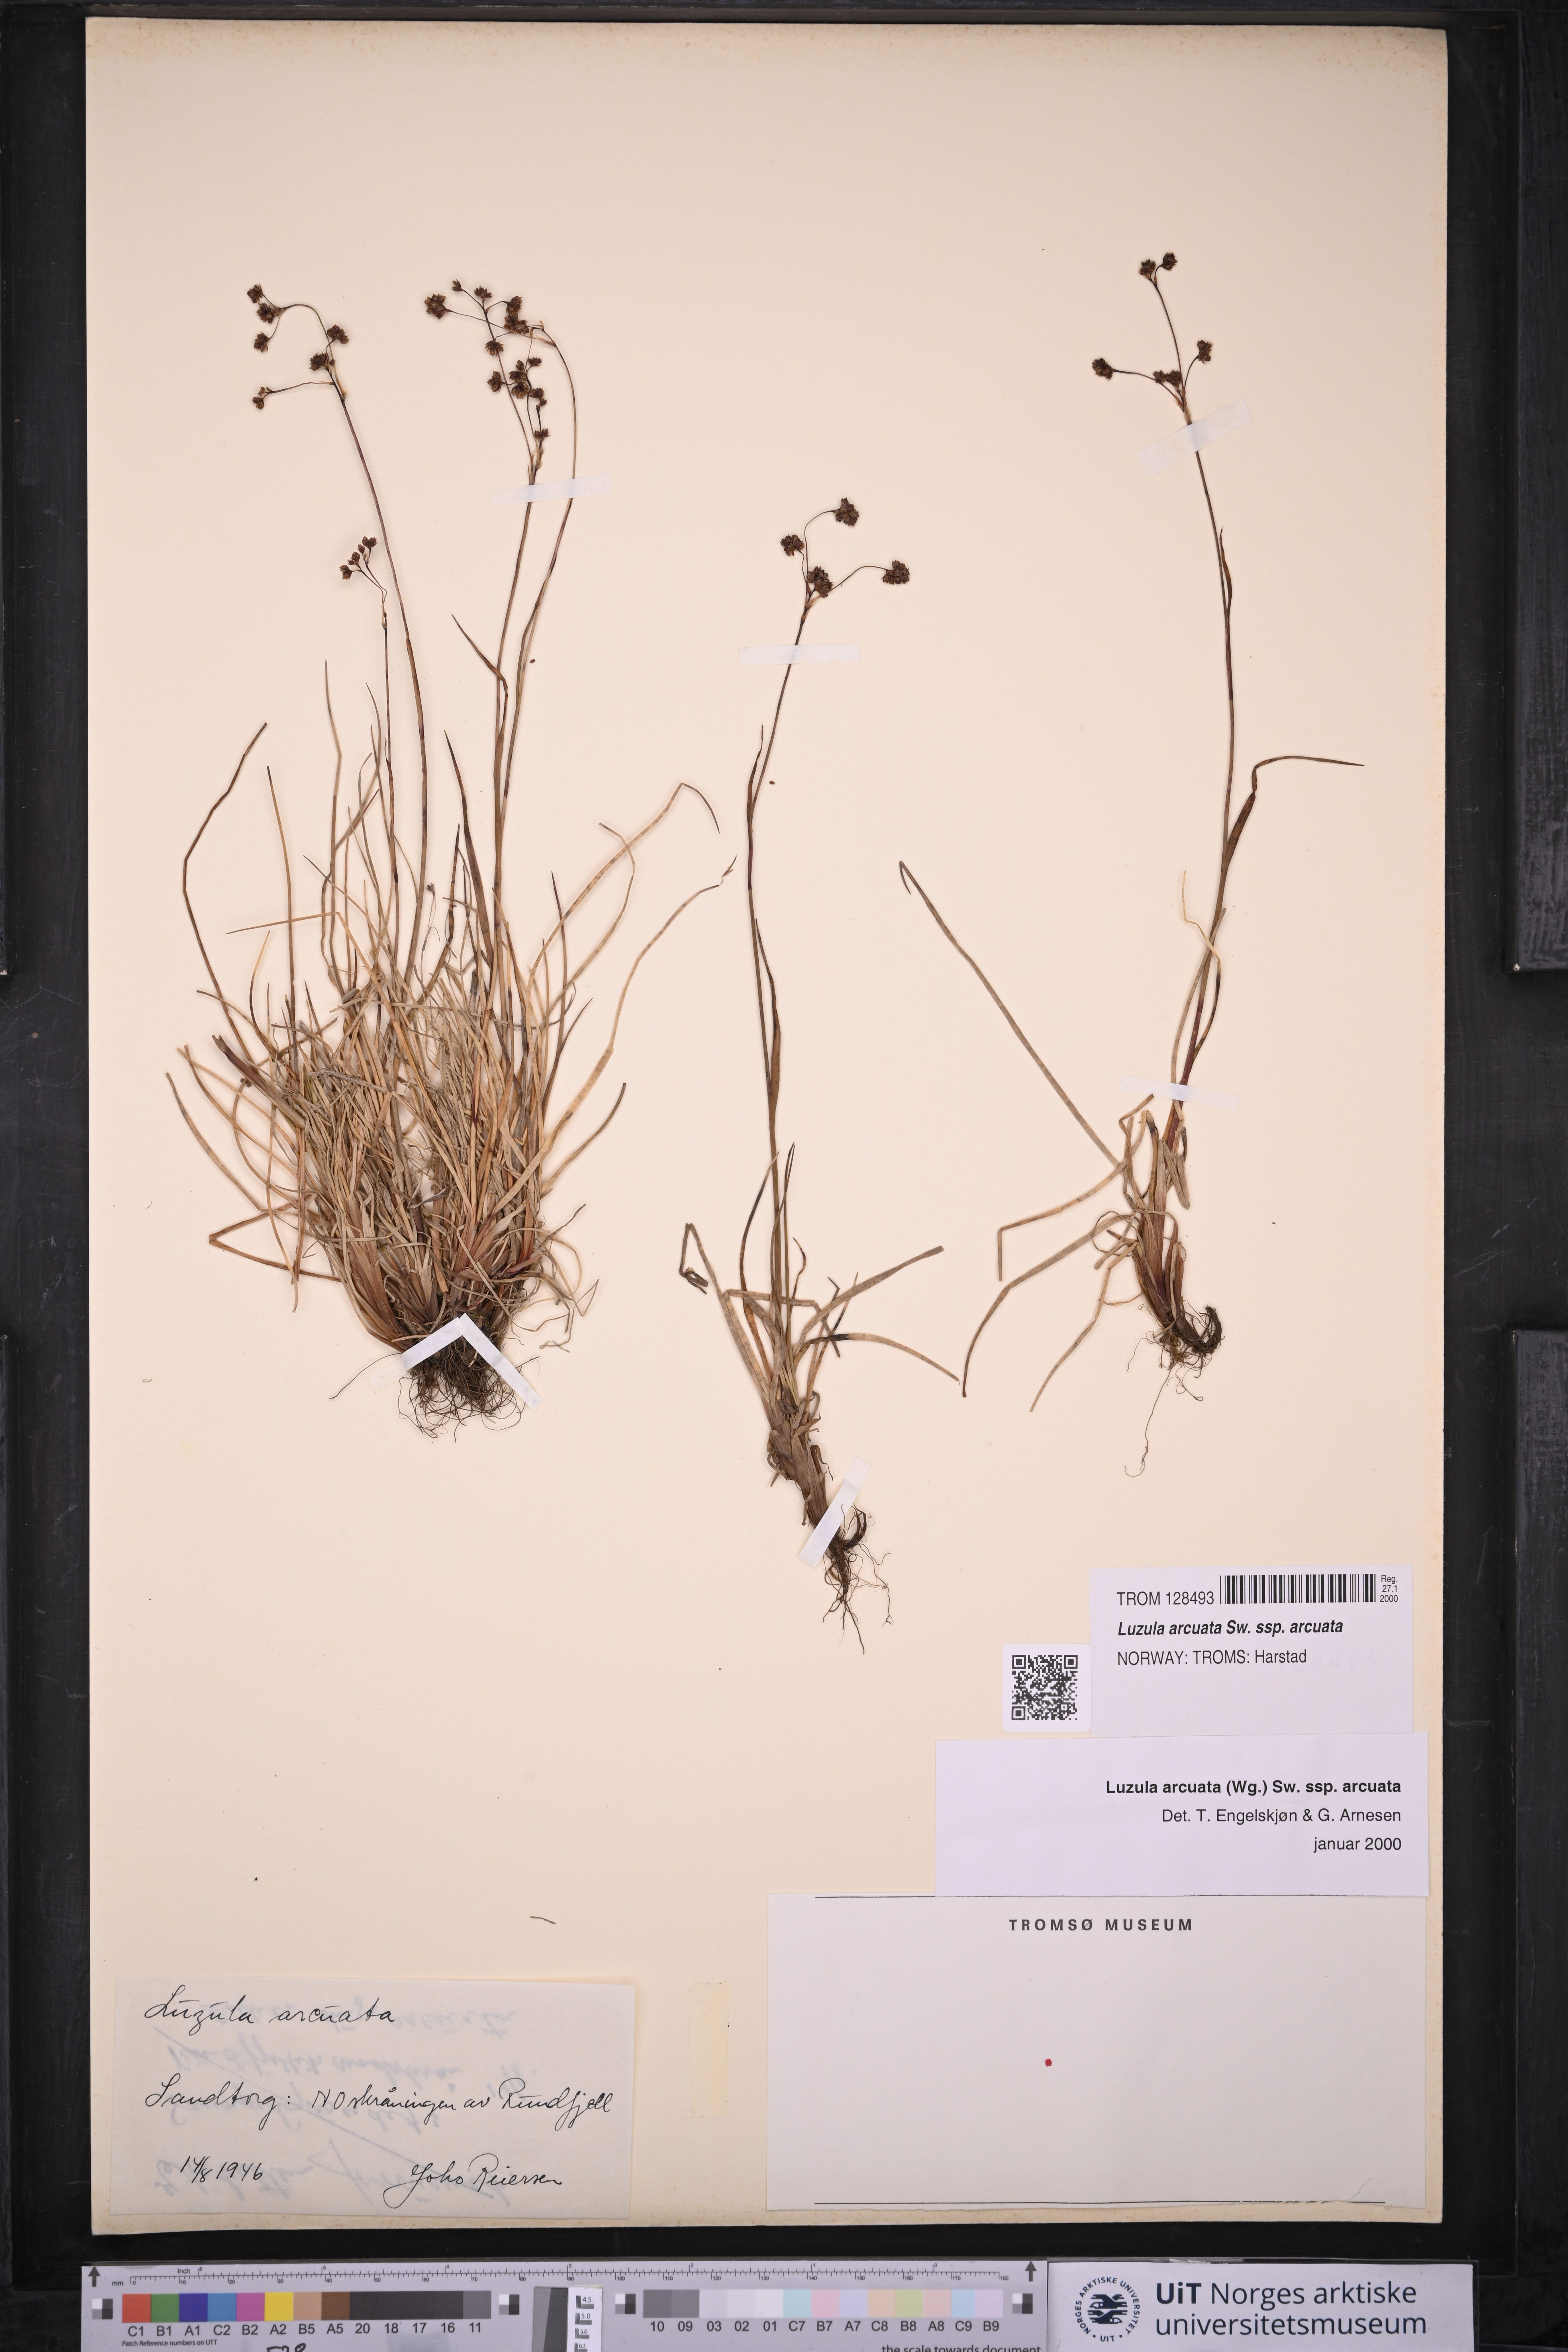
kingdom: Plantae
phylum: Tracheophyta
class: Liliopsida
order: Poales
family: Juncaceae
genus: Luzula
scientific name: Luzula arcuata
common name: Curved wood-rush
